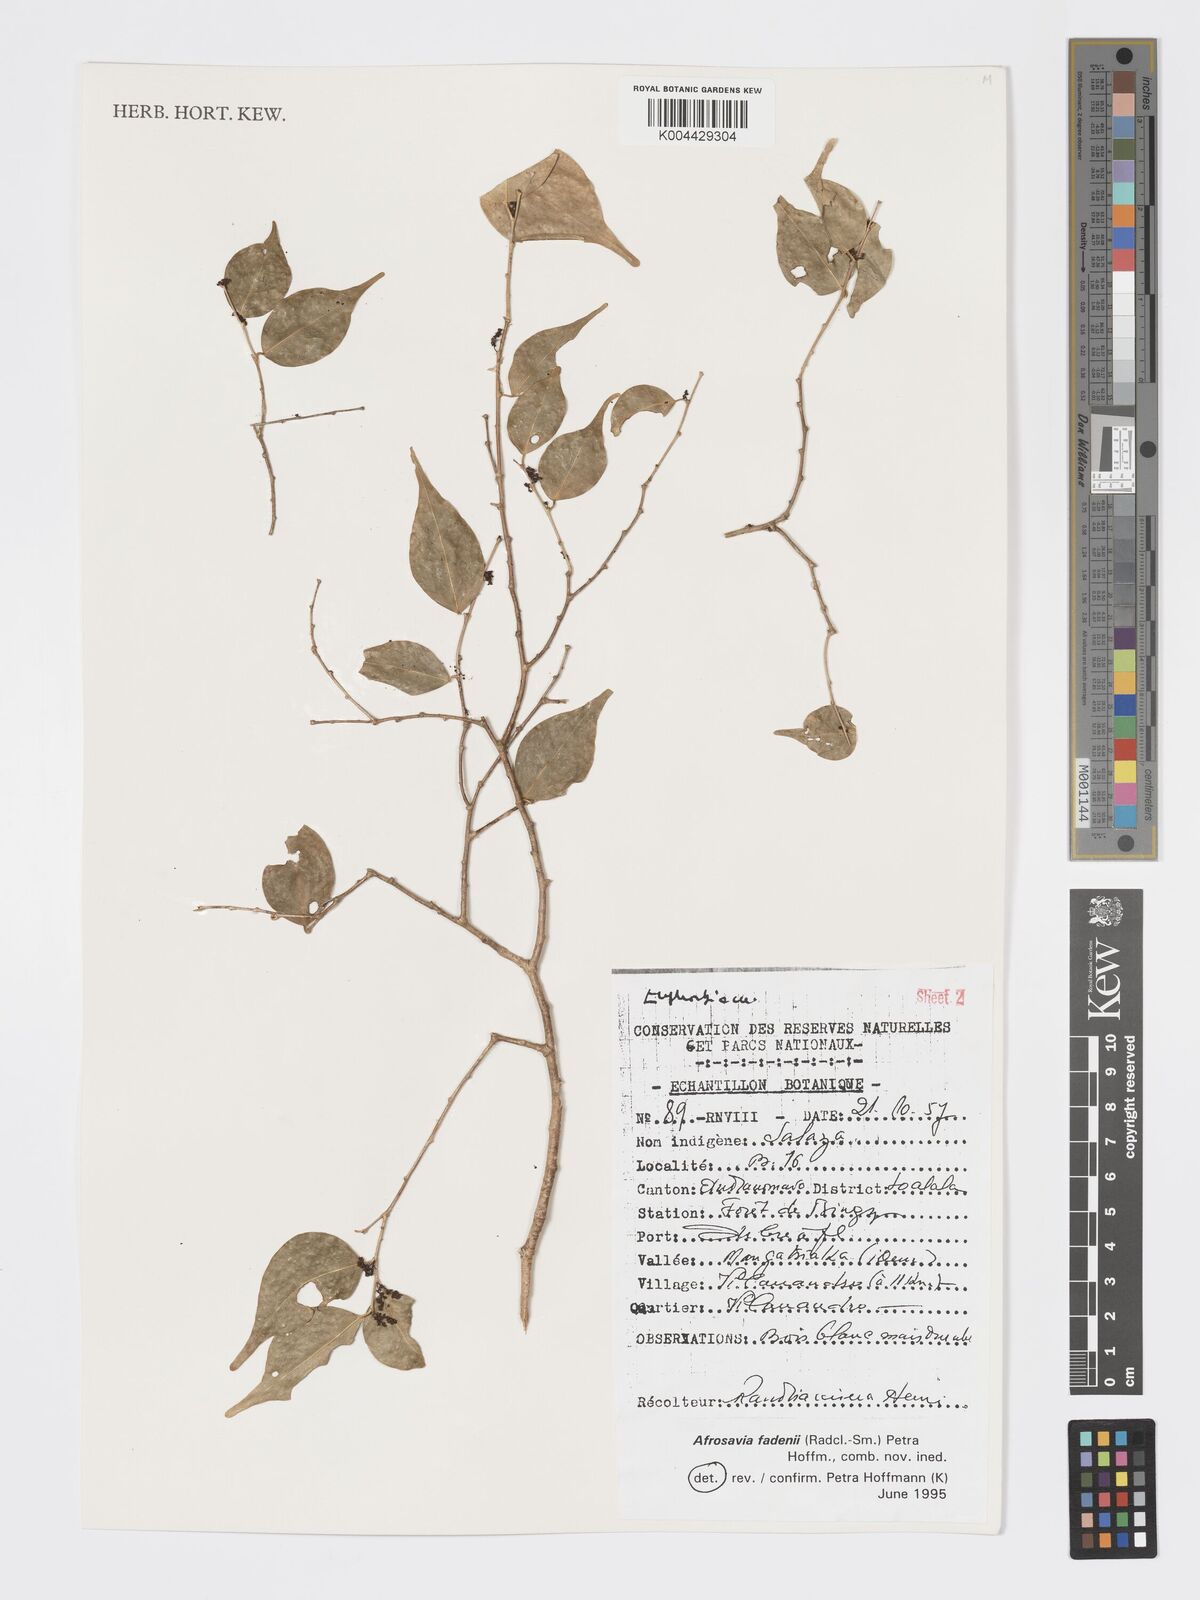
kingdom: Plantae
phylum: Tracheophyta
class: Magnoliopsida
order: Malpighiales
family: Phyllanthaceae
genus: Wielandia
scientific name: Wielandia fadenii
